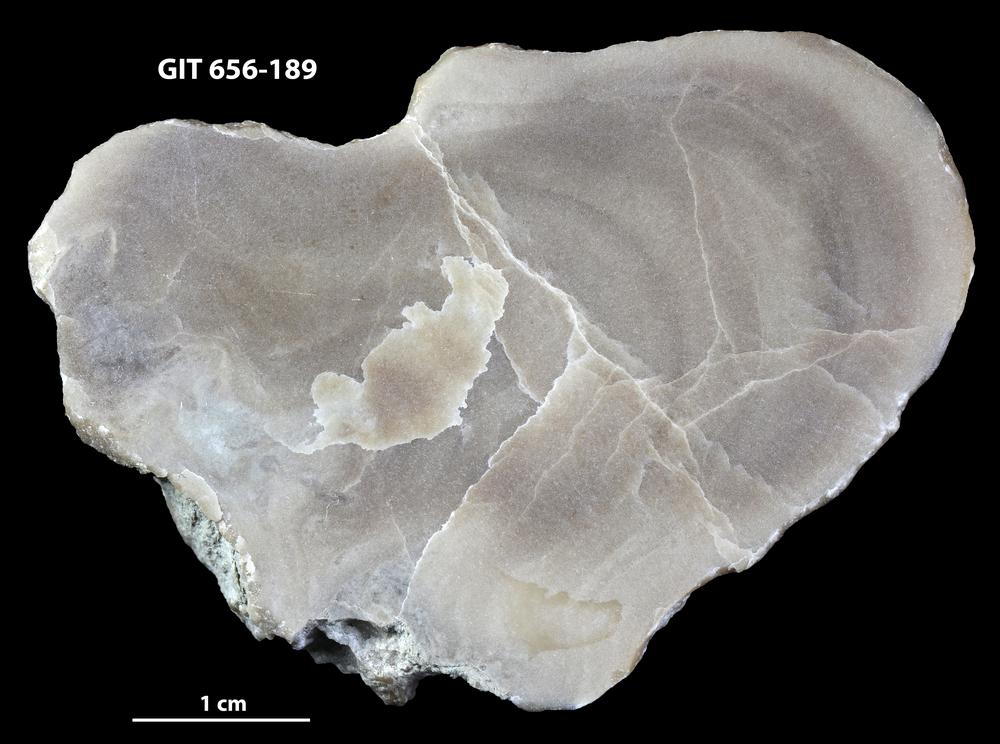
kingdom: Animalia
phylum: Porifera
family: Actinostromatidae
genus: Plectostroma
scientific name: Plectostroma
